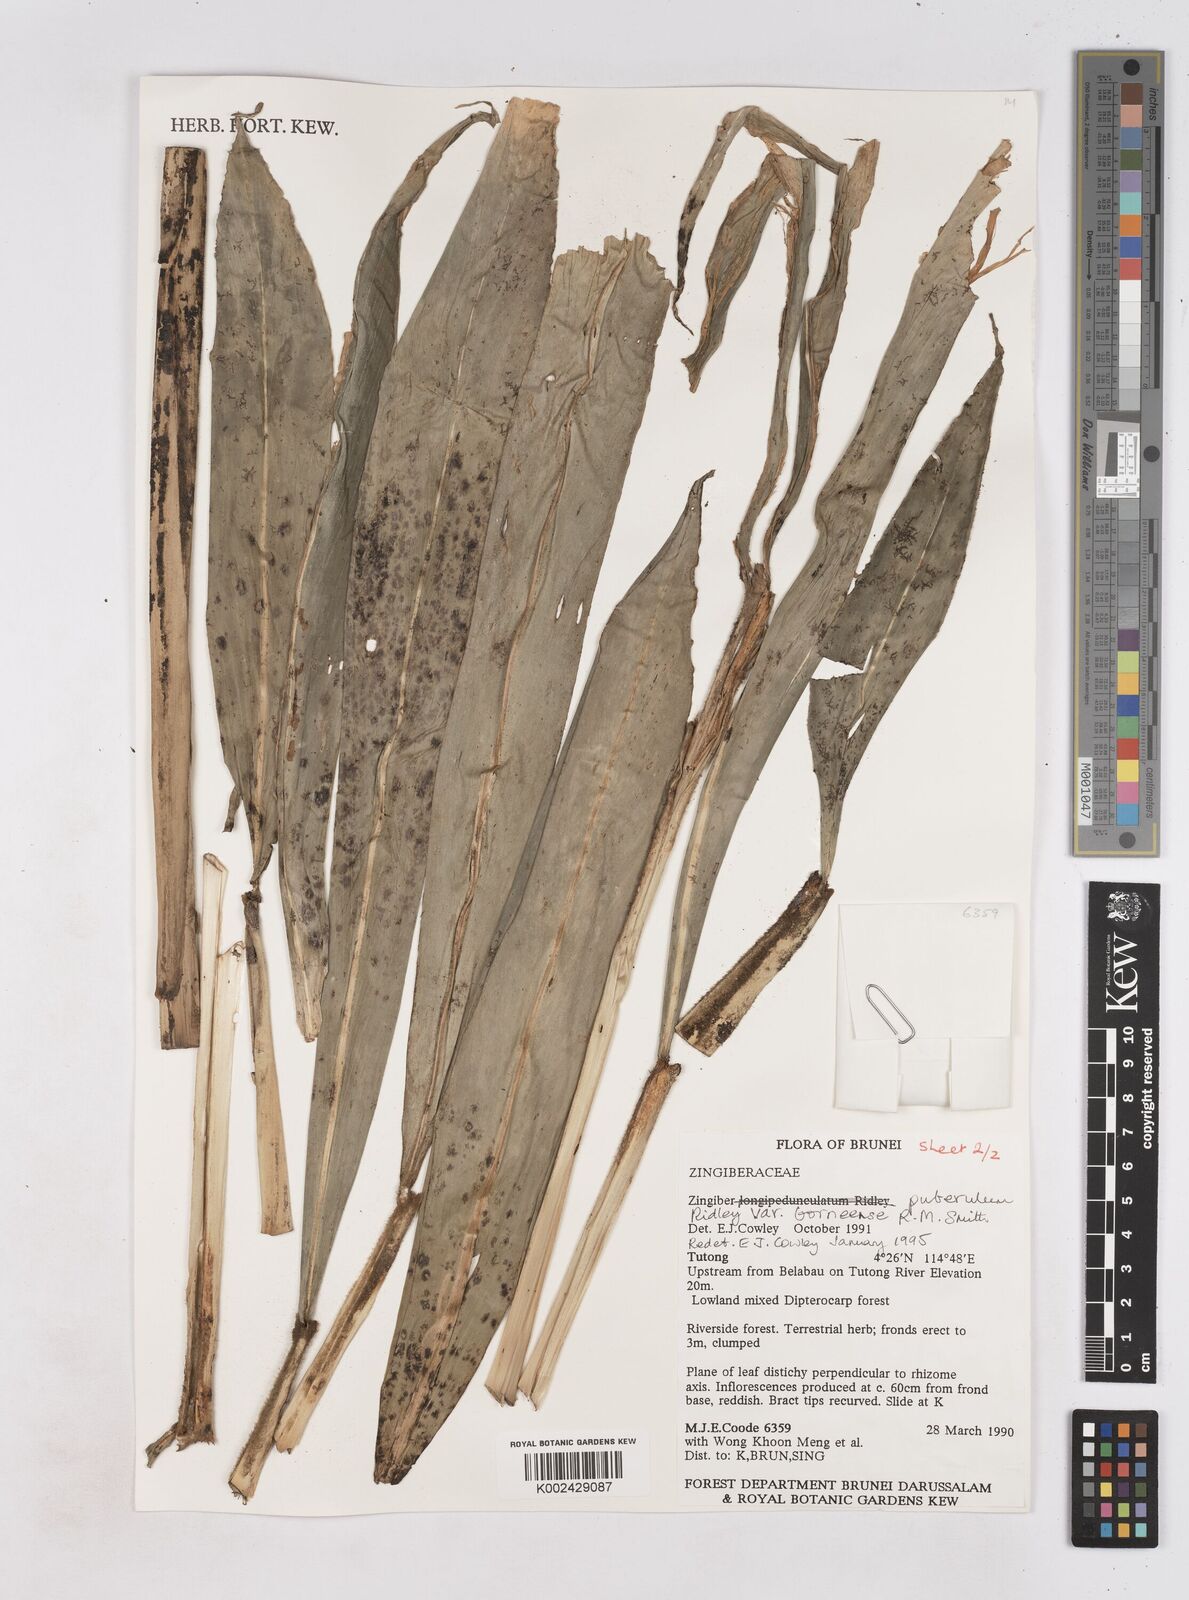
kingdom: Plantae
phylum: Tracheophyta
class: Liliopsida
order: Zingiberales
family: Zingiberaceae
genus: Zingiber
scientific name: Zingiber puberulum
